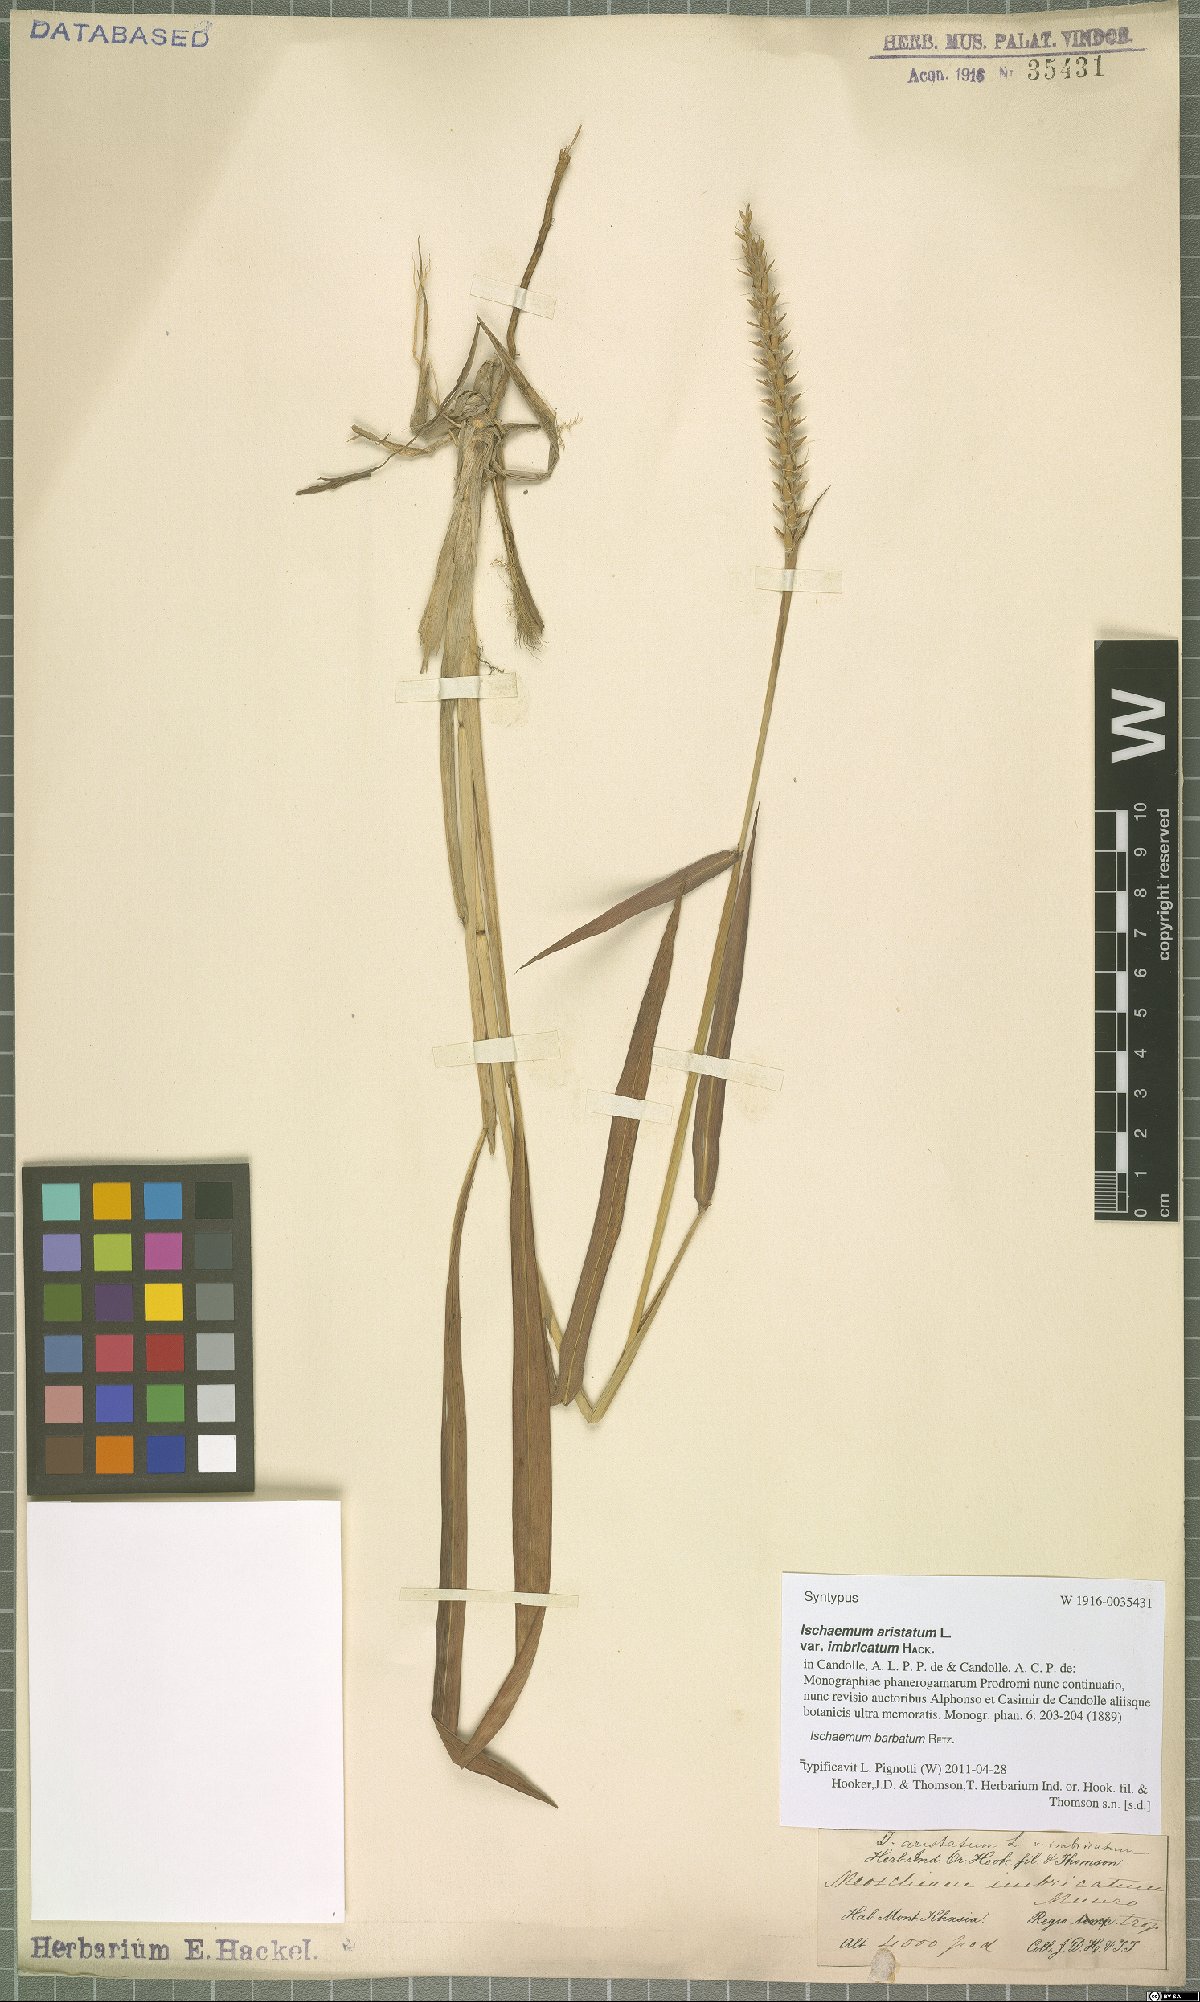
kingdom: Plantae
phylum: Tracheophyta
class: Liliopsida
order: Poales
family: Poaceae
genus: Ischaemum
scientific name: Ischaemum barbatum
